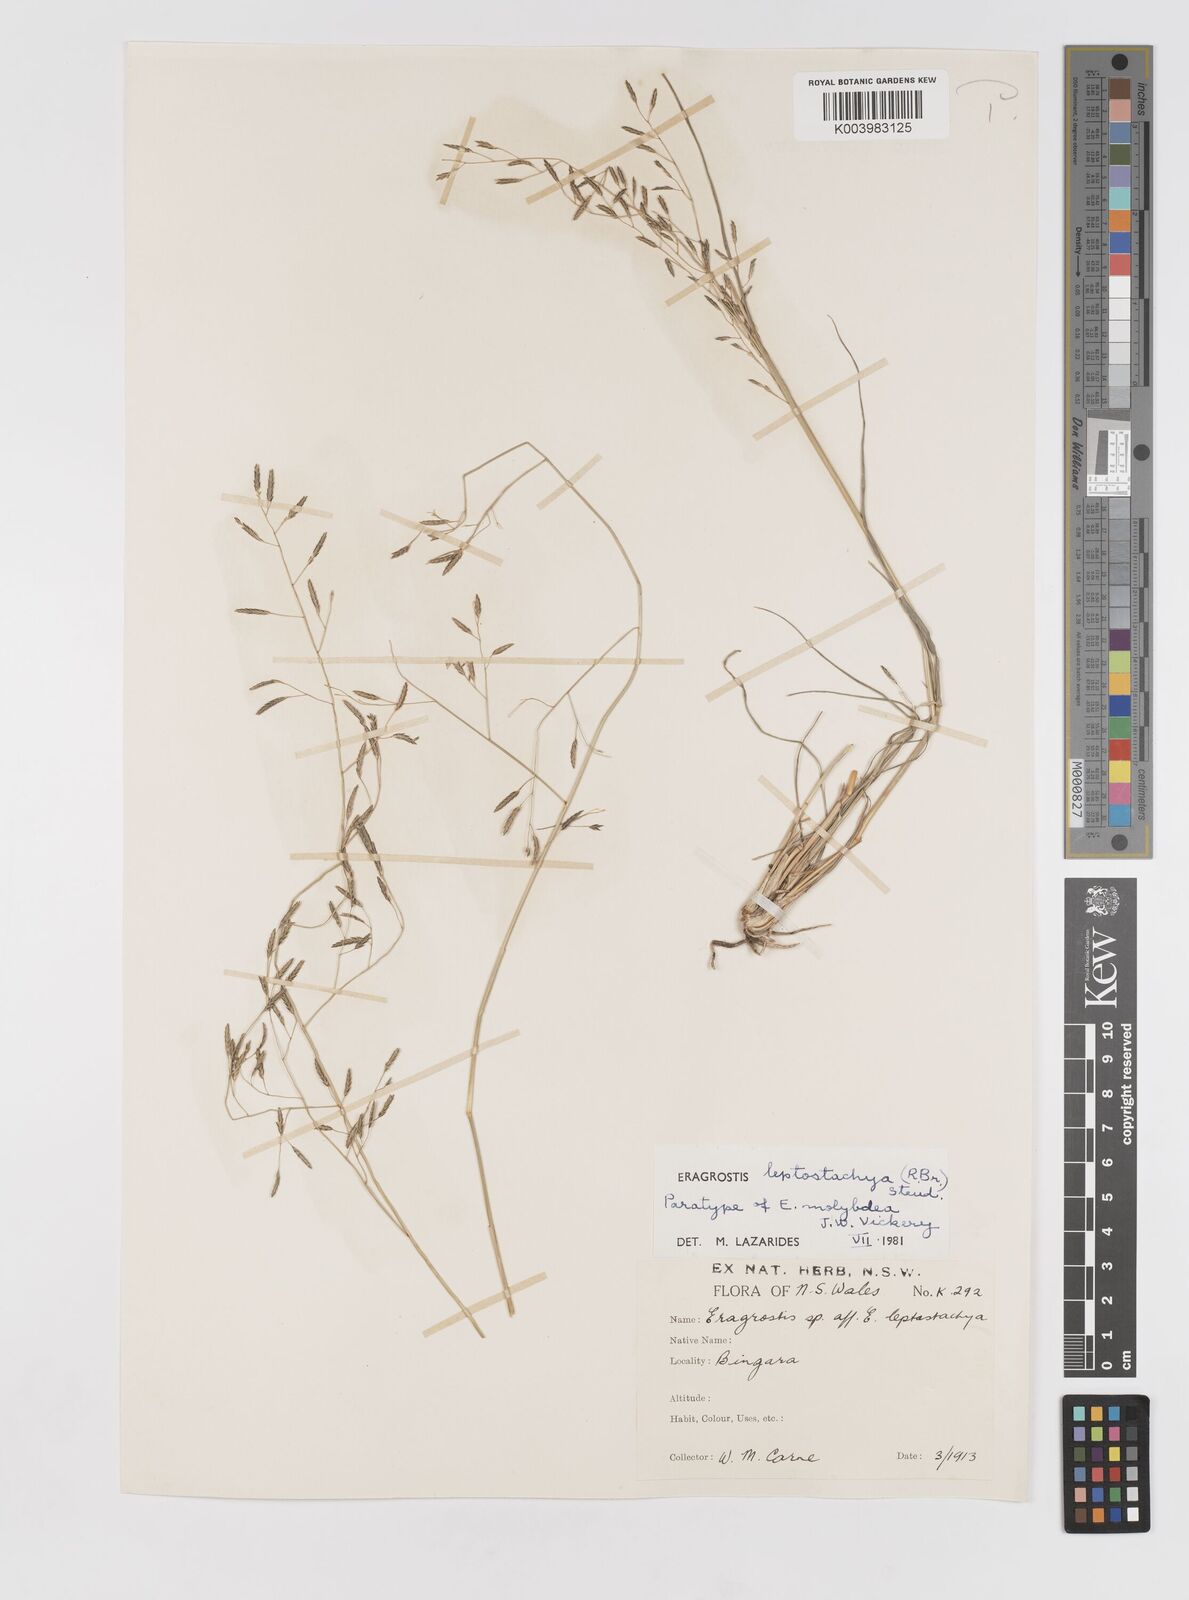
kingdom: Plantae
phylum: Tracheophyta
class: Liliopsida
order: Poales
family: Poaceae
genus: Eragrostis
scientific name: Eragrostis leptostachya
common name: Australian lovegrass
